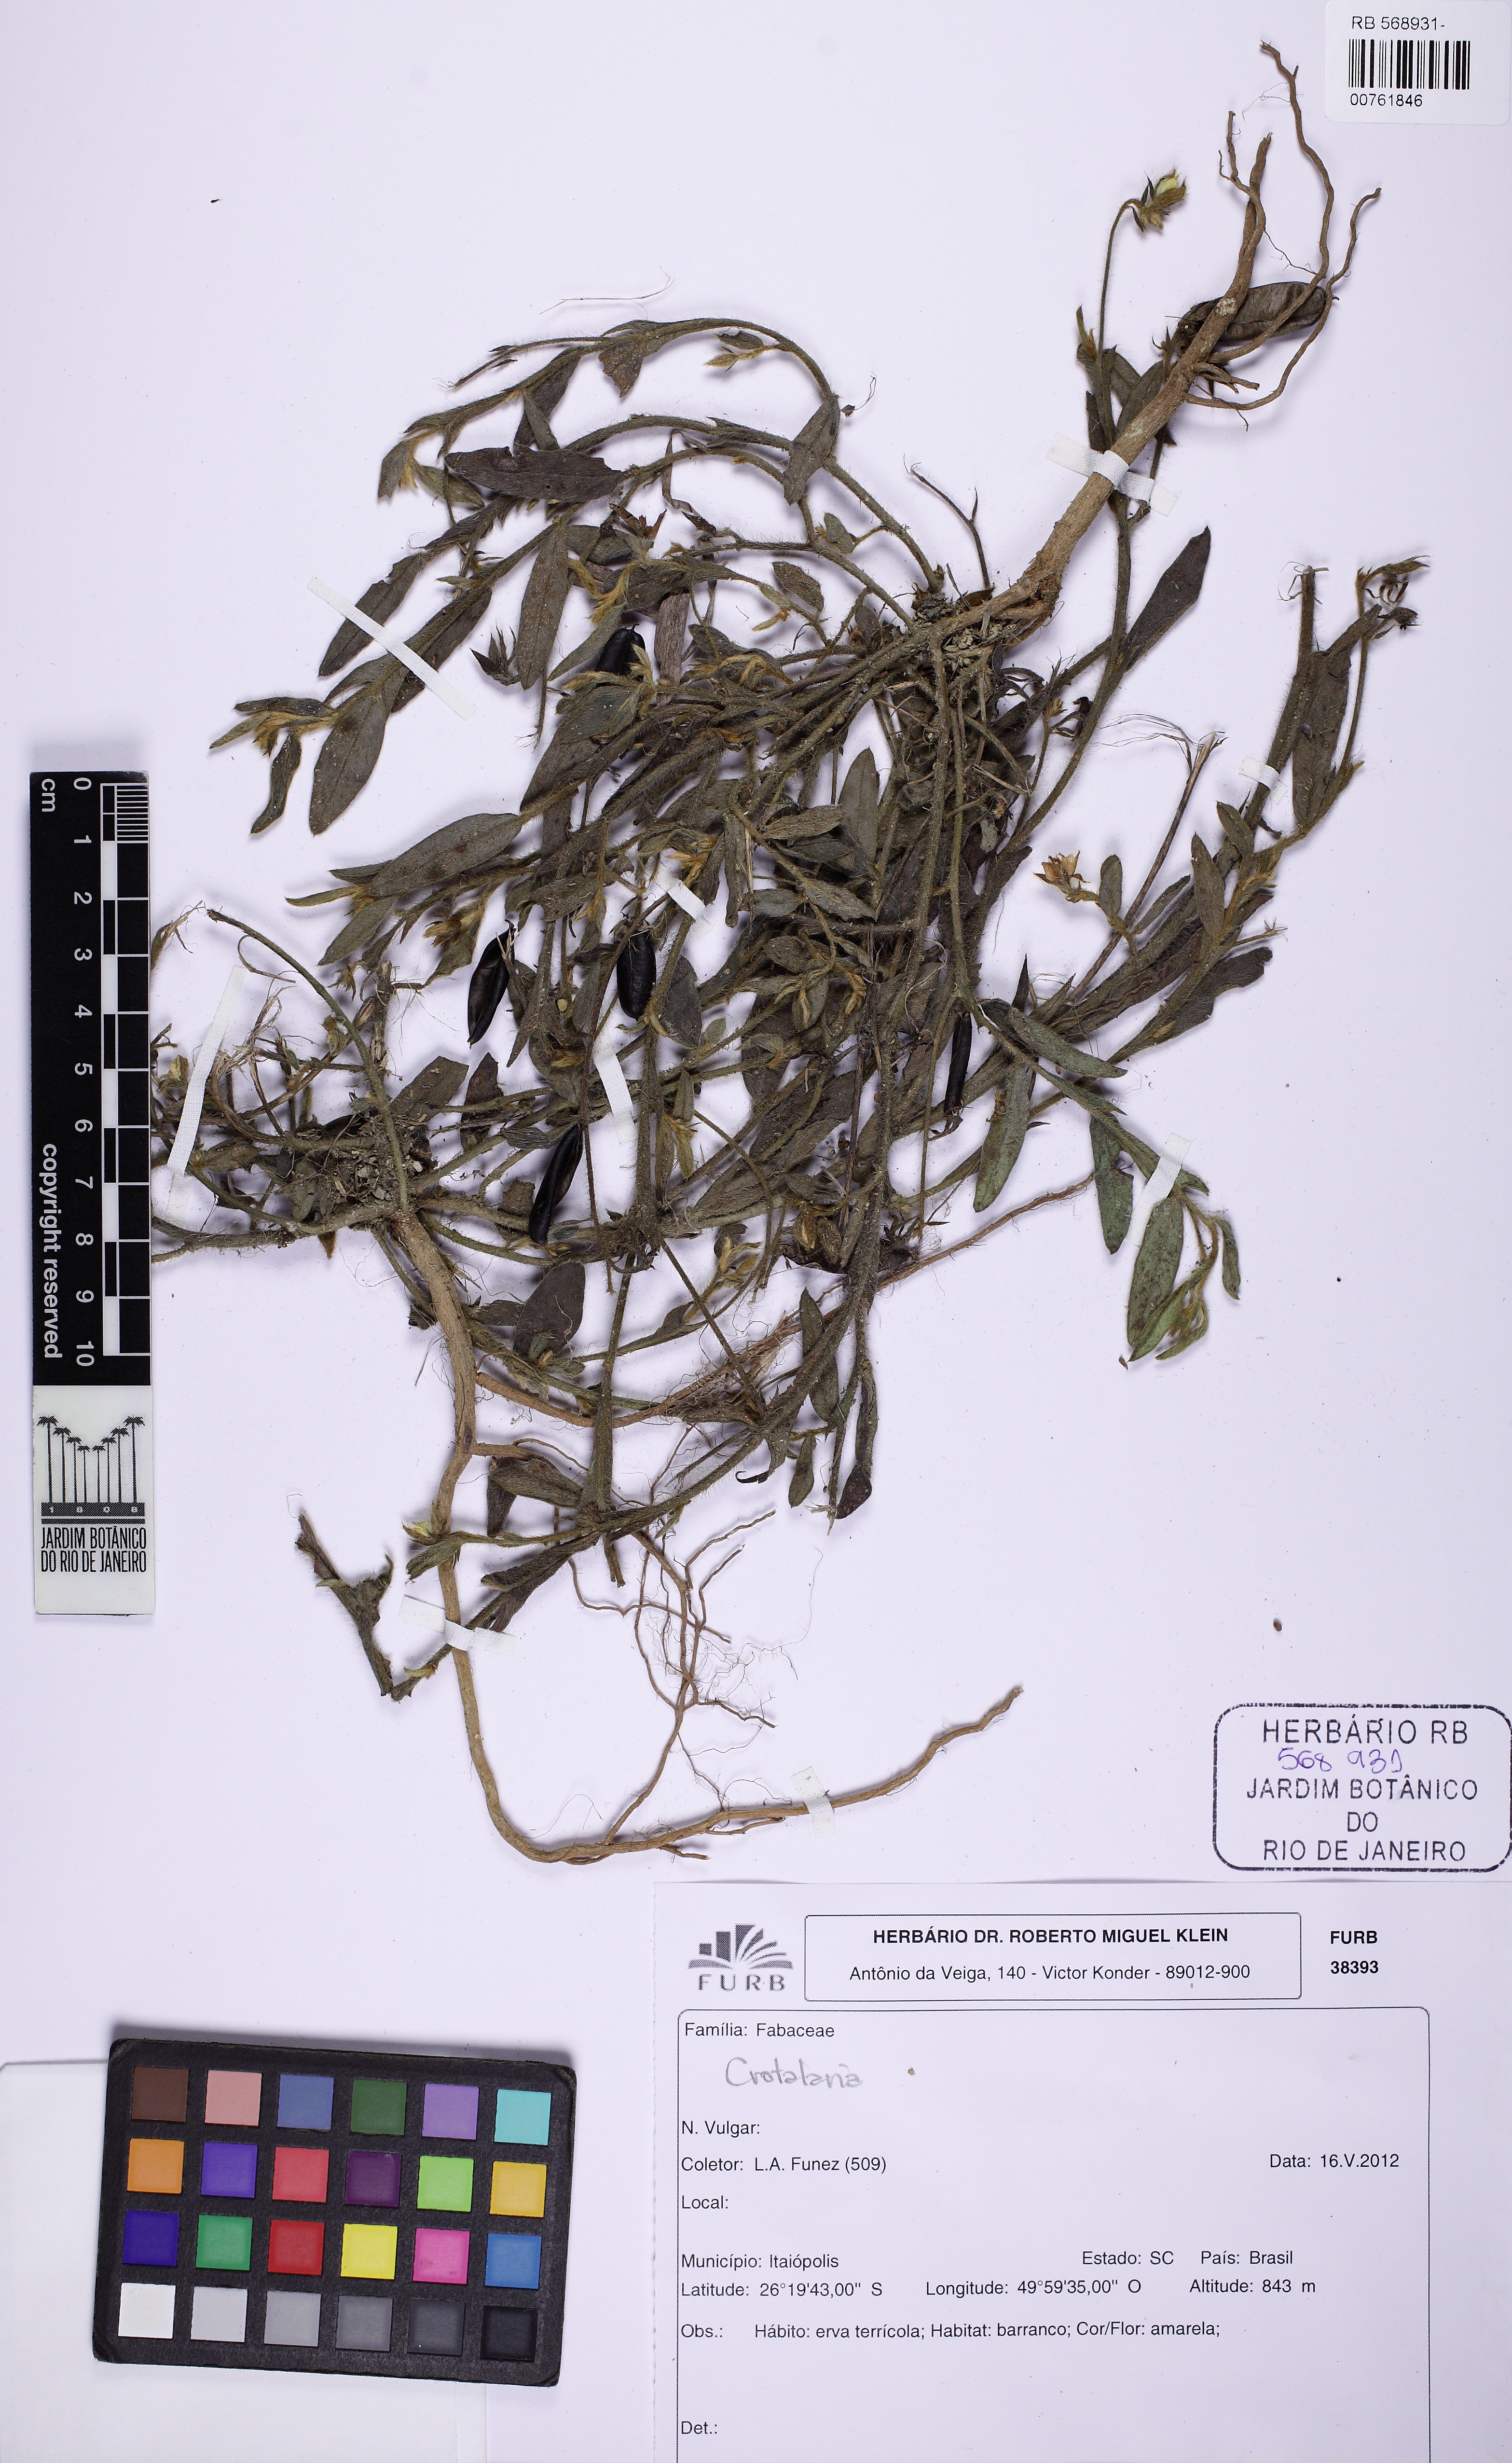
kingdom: Plantae
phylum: Tracheophyta
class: Magnoliopsida
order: Fabales
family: Fabaceae
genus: Crotalaria
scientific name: Crotalaria
